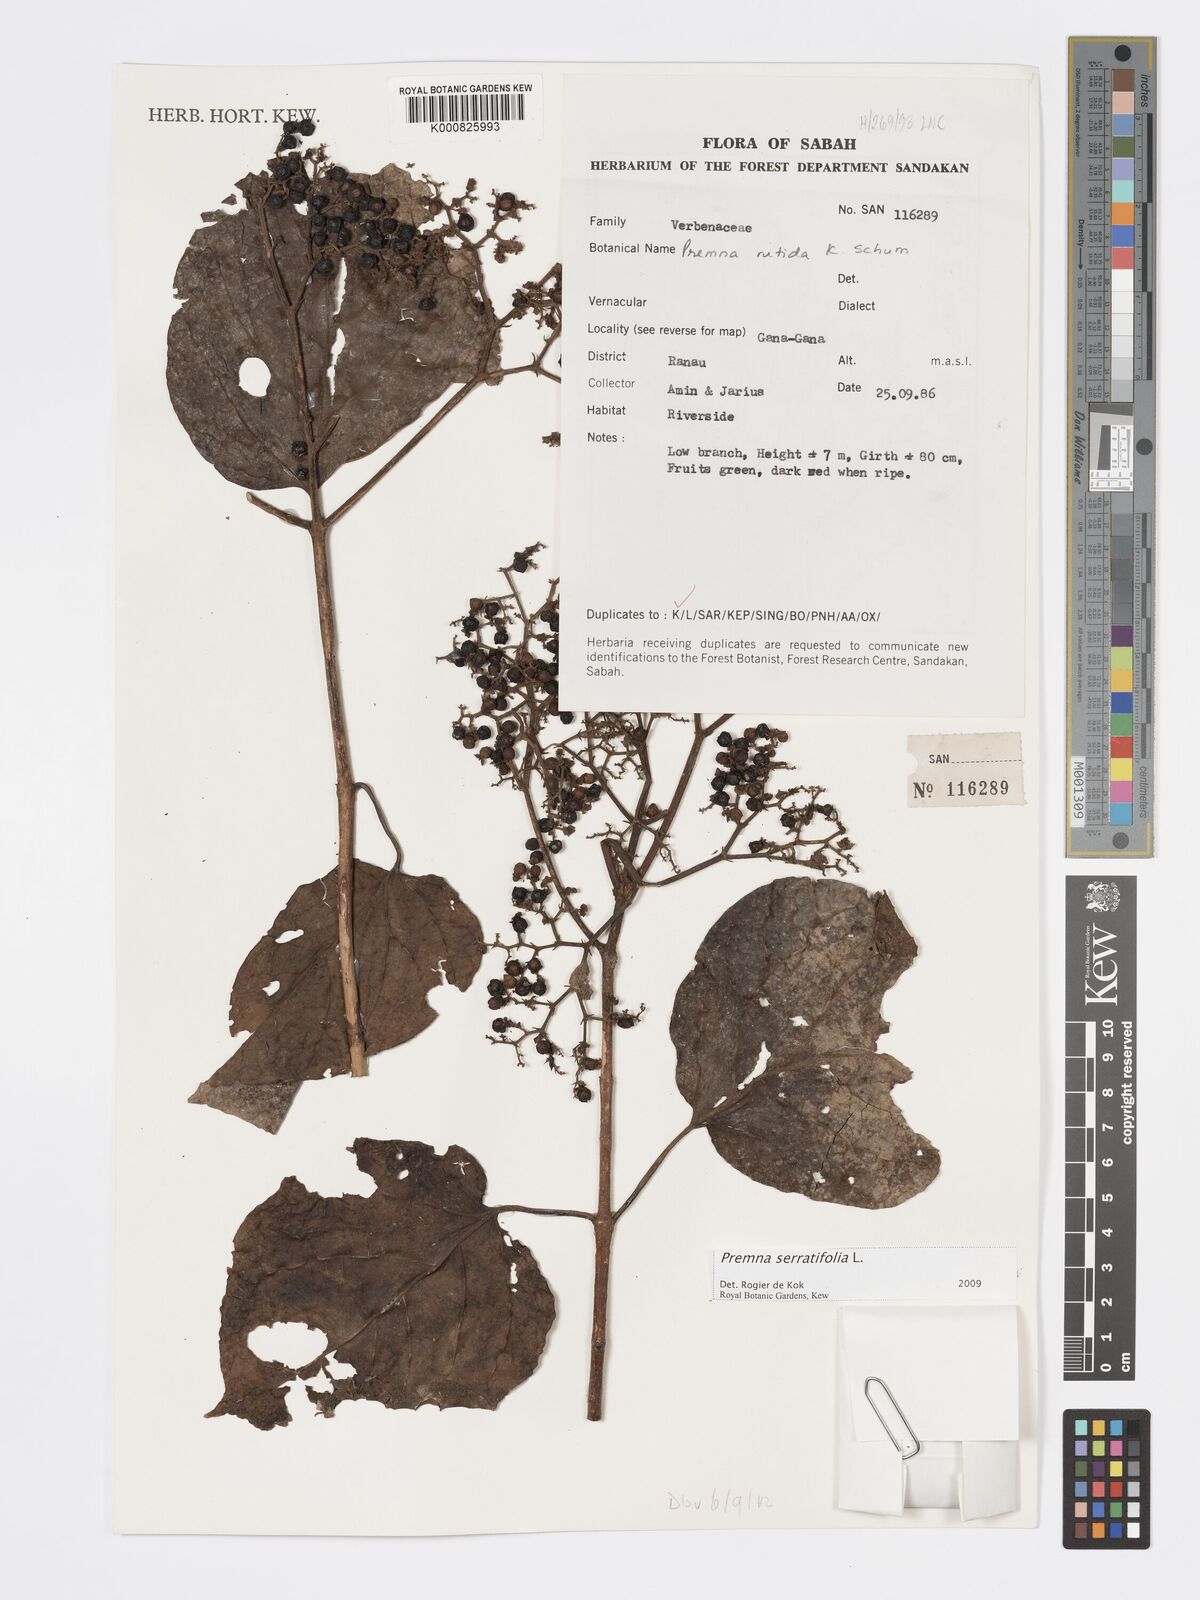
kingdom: Plantae
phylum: Tracheophyta
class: Magnoliopsida
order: Lamiales
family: Lamiaceae
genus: Premna
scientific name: Premna serratifolia
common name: Bastard guelder
